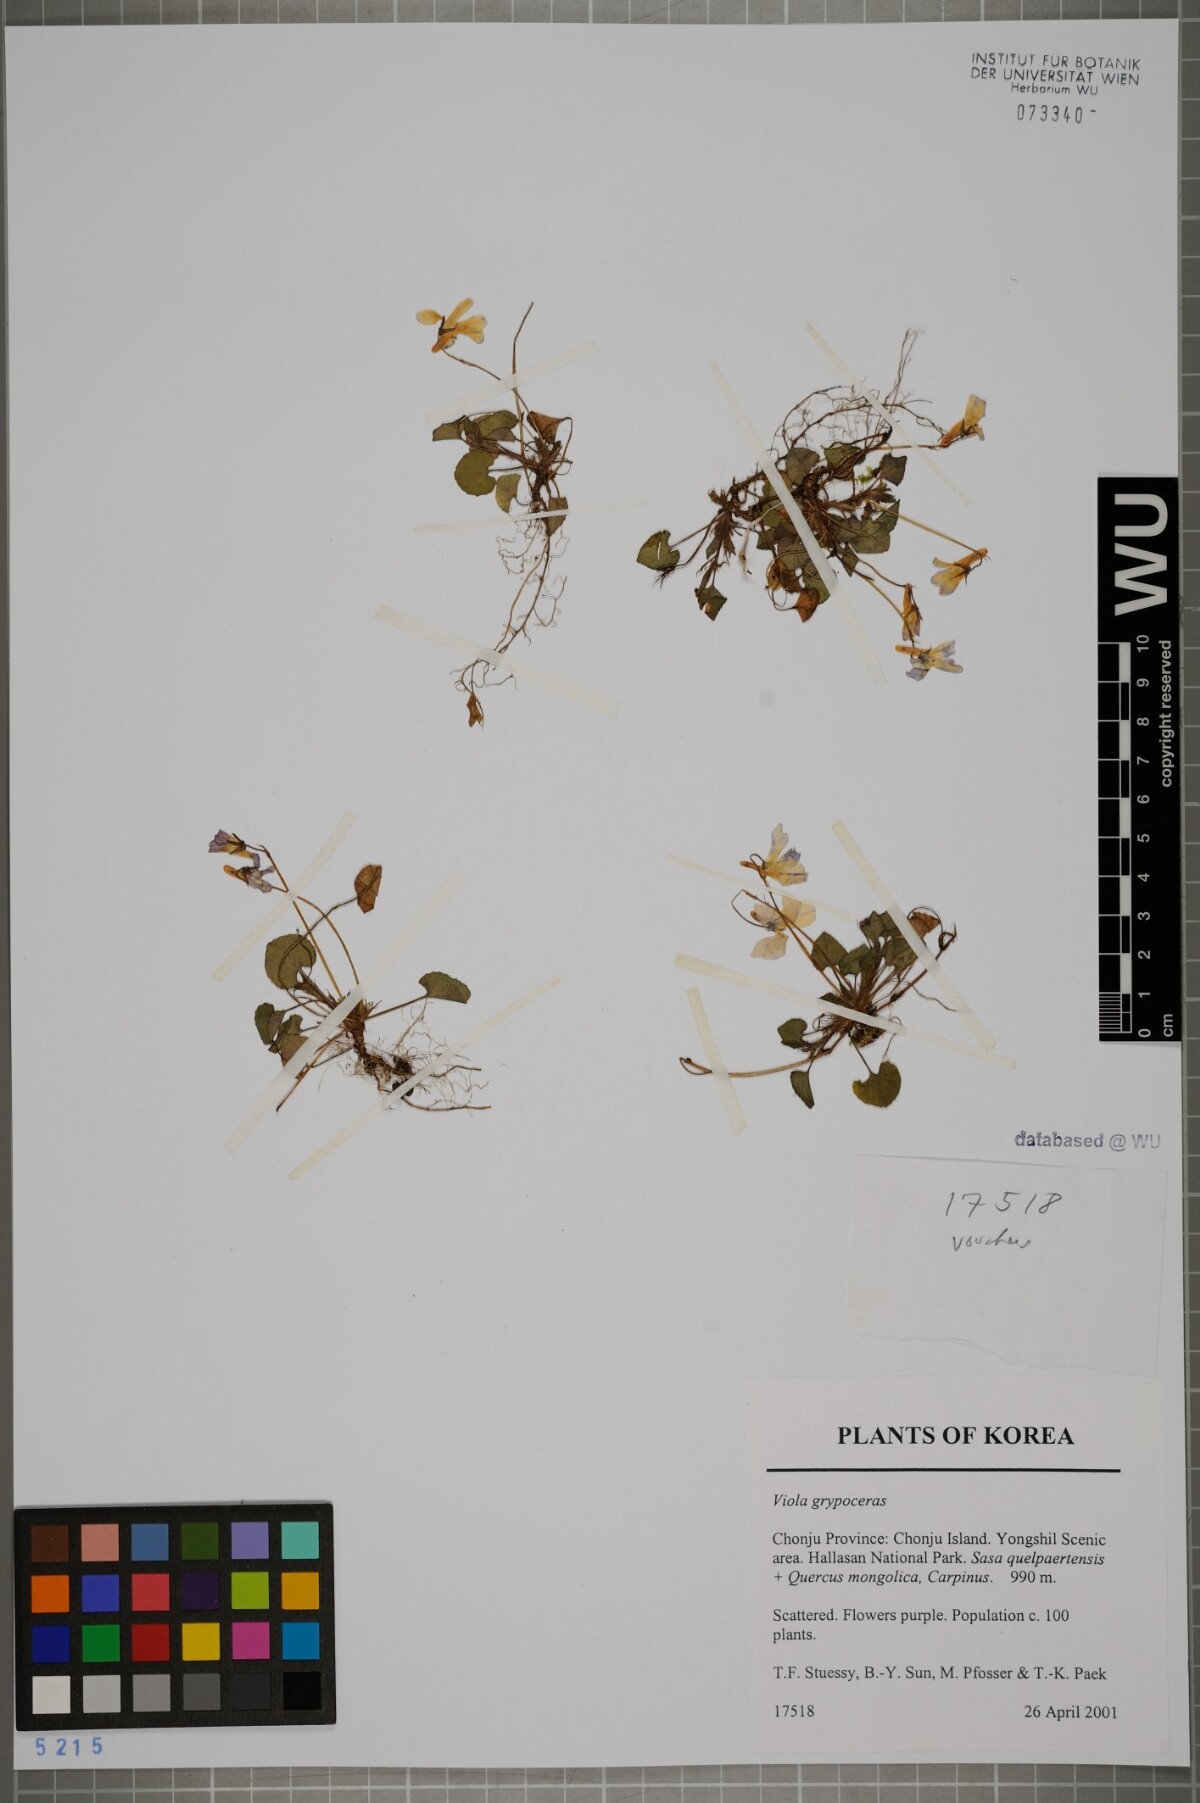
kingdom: Plantae
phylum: Tracheophyta
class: Magnoliopsida
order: Malpighiales
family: Violaceae
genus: Viola
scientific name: Viola grypoceras
